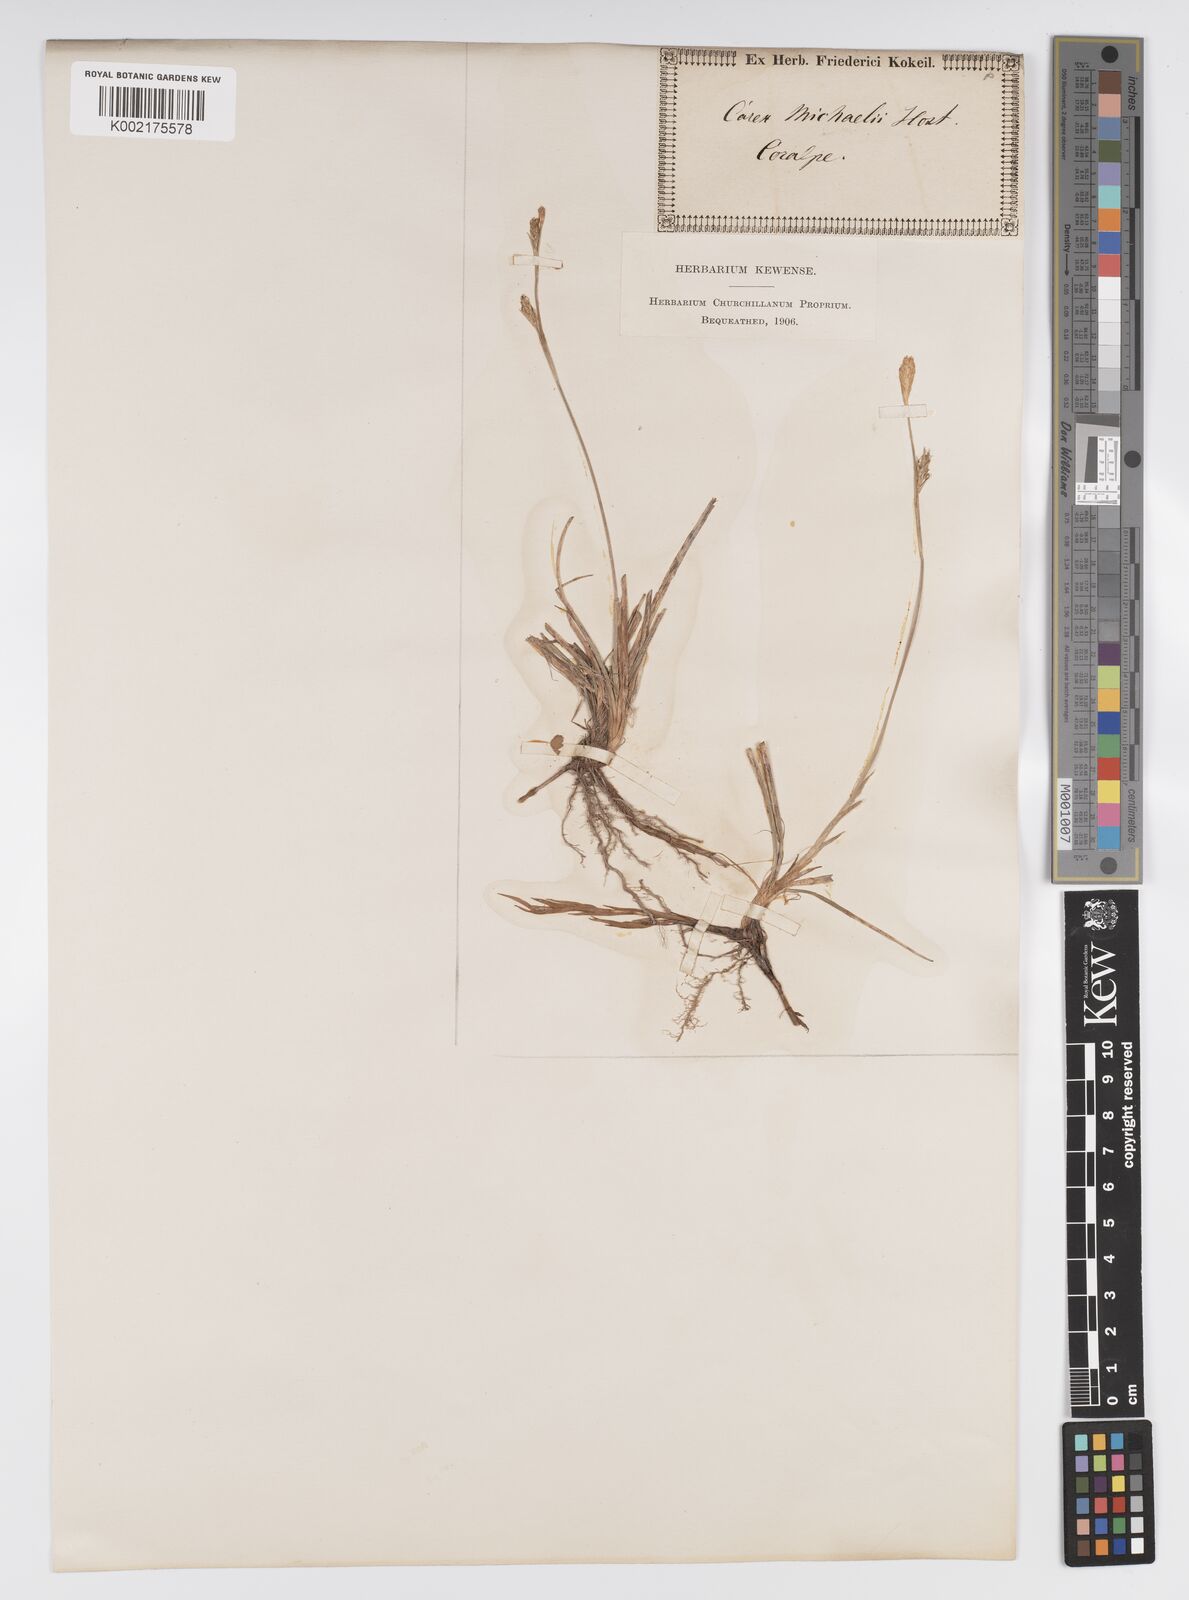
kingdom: Plantae
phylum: Tracheophyta
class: Liliopsida
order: Poales
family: Cyperaceae
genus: Carex
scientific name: Carex michelii
